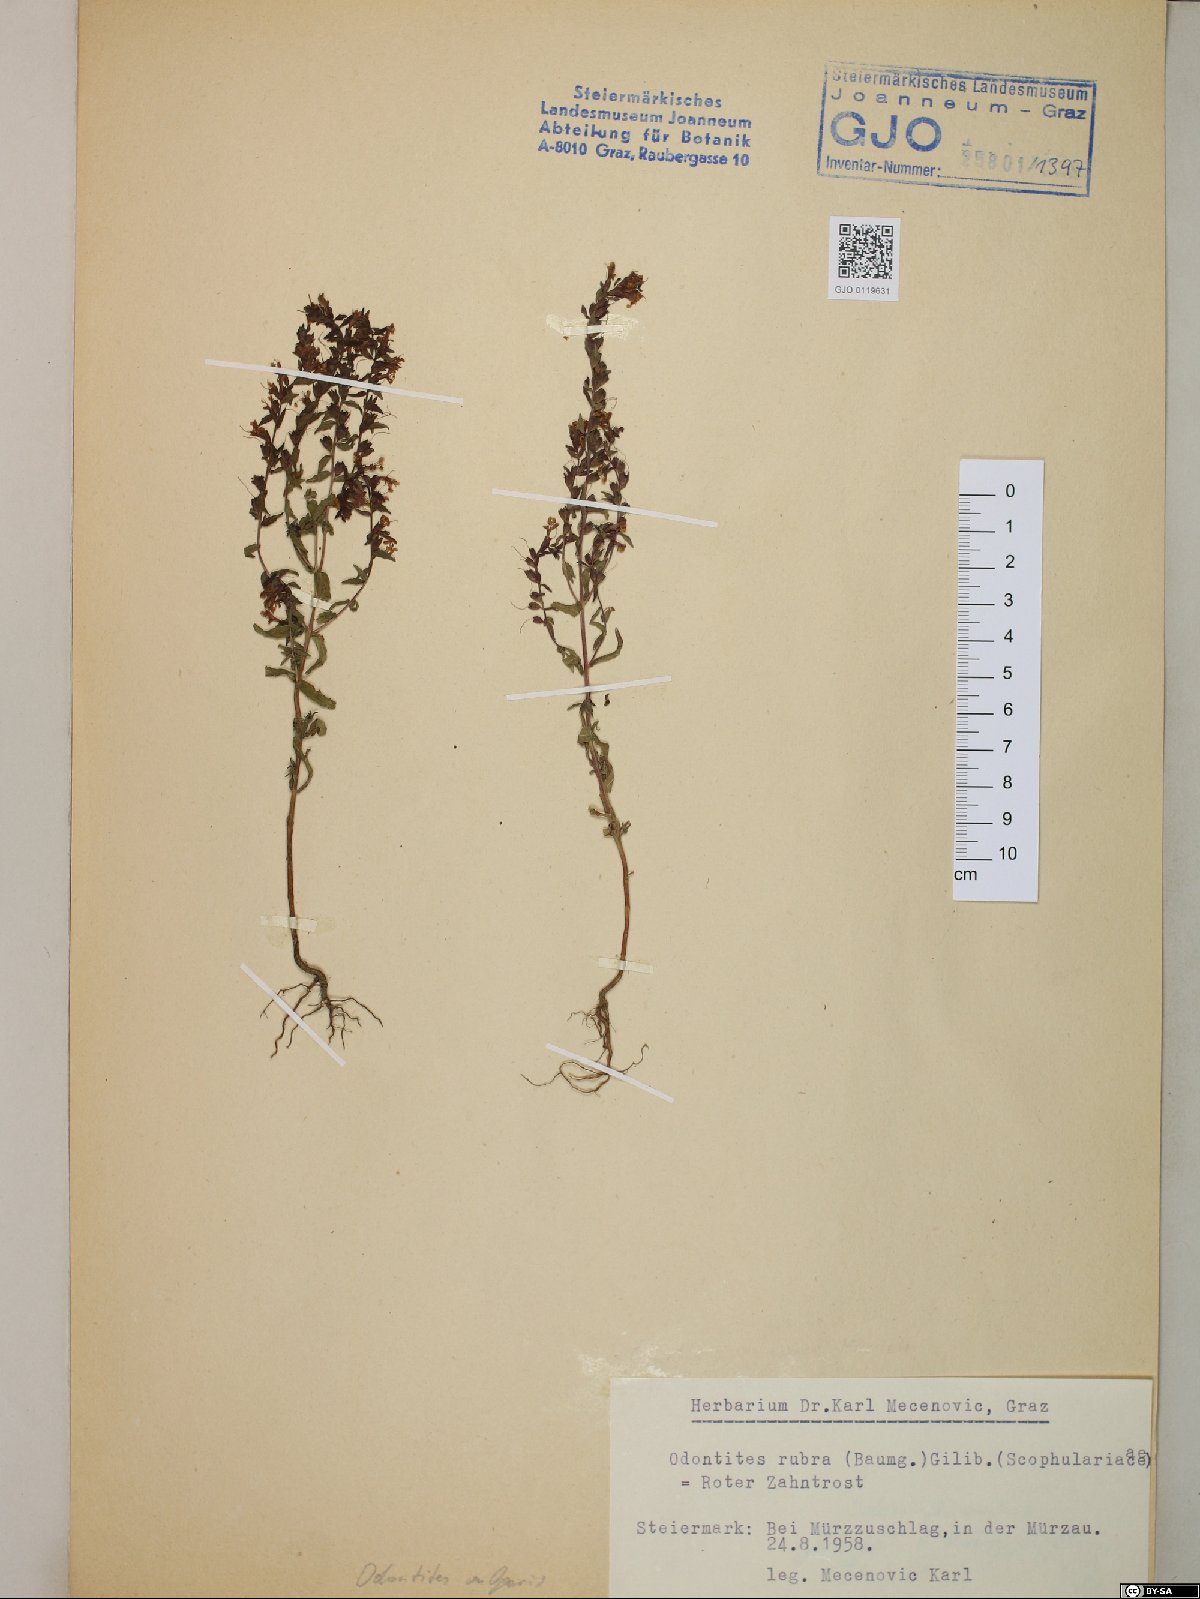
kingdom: Plantae
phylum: Tracheophyta
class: Magnoliopsida
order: Lamiales
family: Orobanchaceae
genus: Odontites
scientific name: Odontites vulgaris
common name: Broomrape
